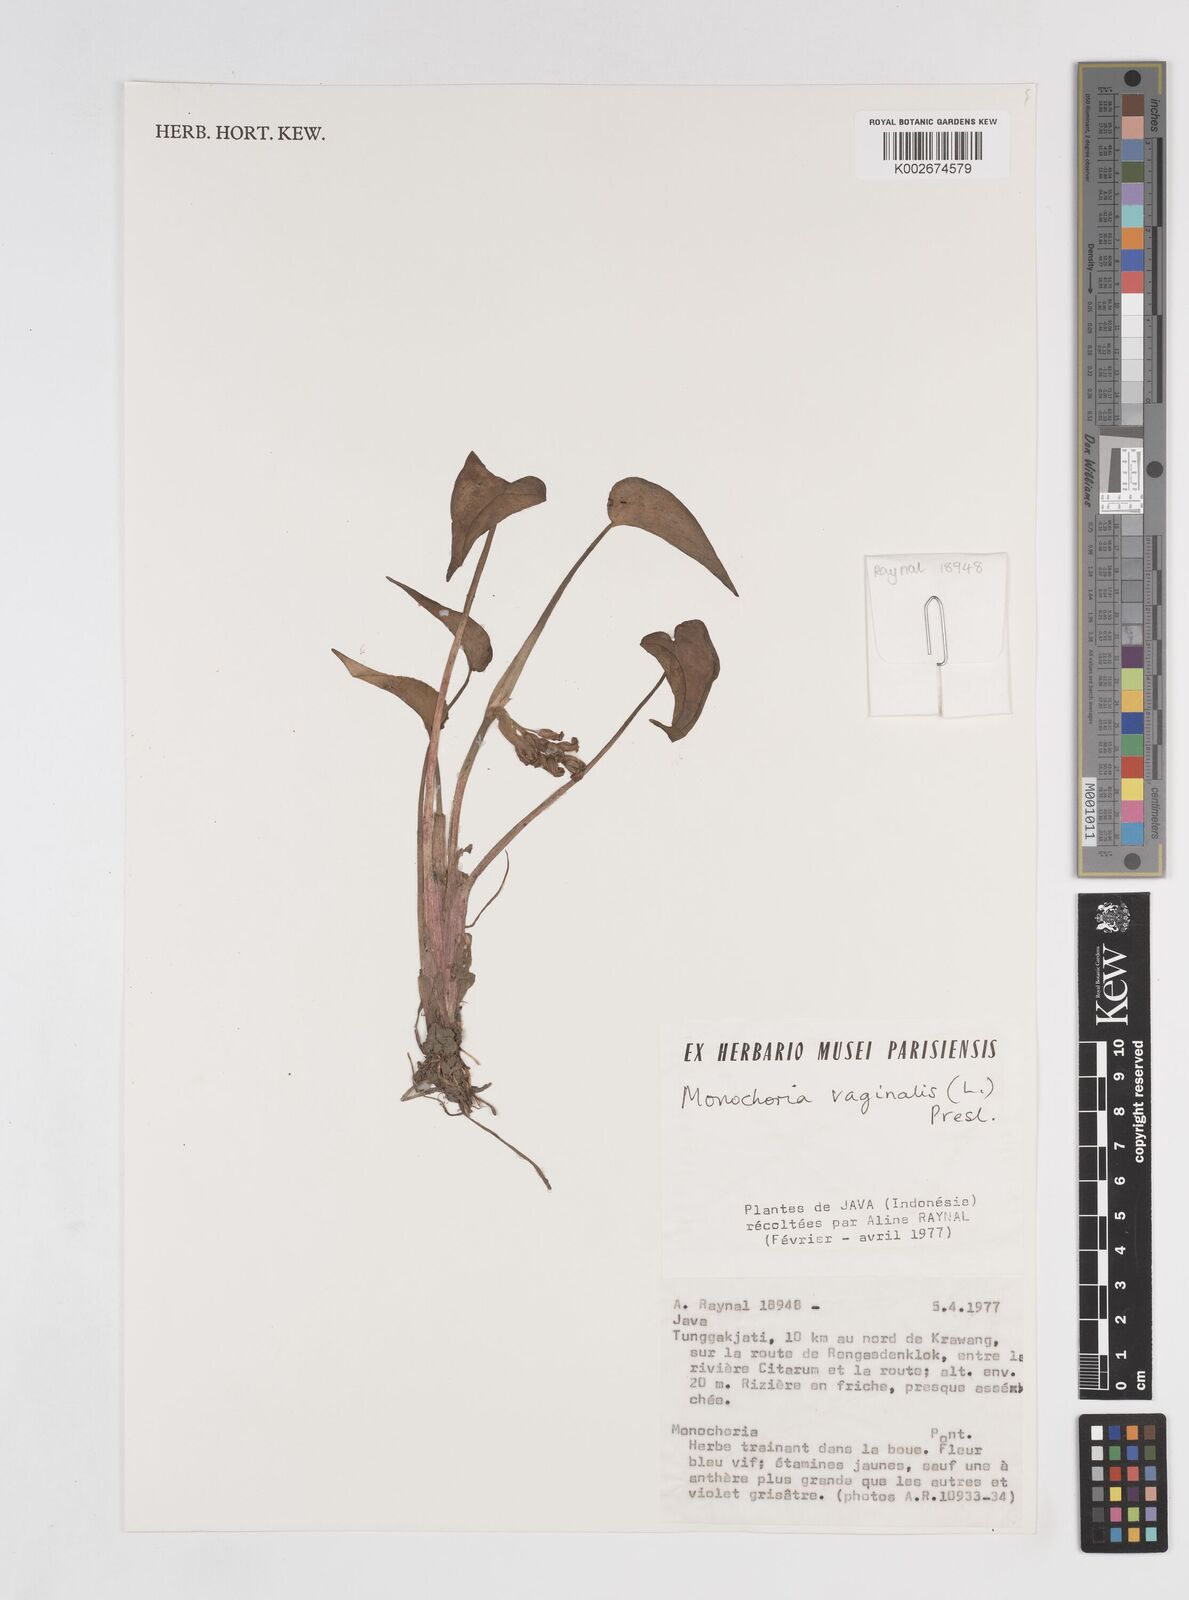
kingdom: Plantae
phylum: Tracheophyta
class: Liliopsida
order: Commelinales
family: Pontederiaceae
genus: Pontederia
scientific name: Pontederia vaginalis
